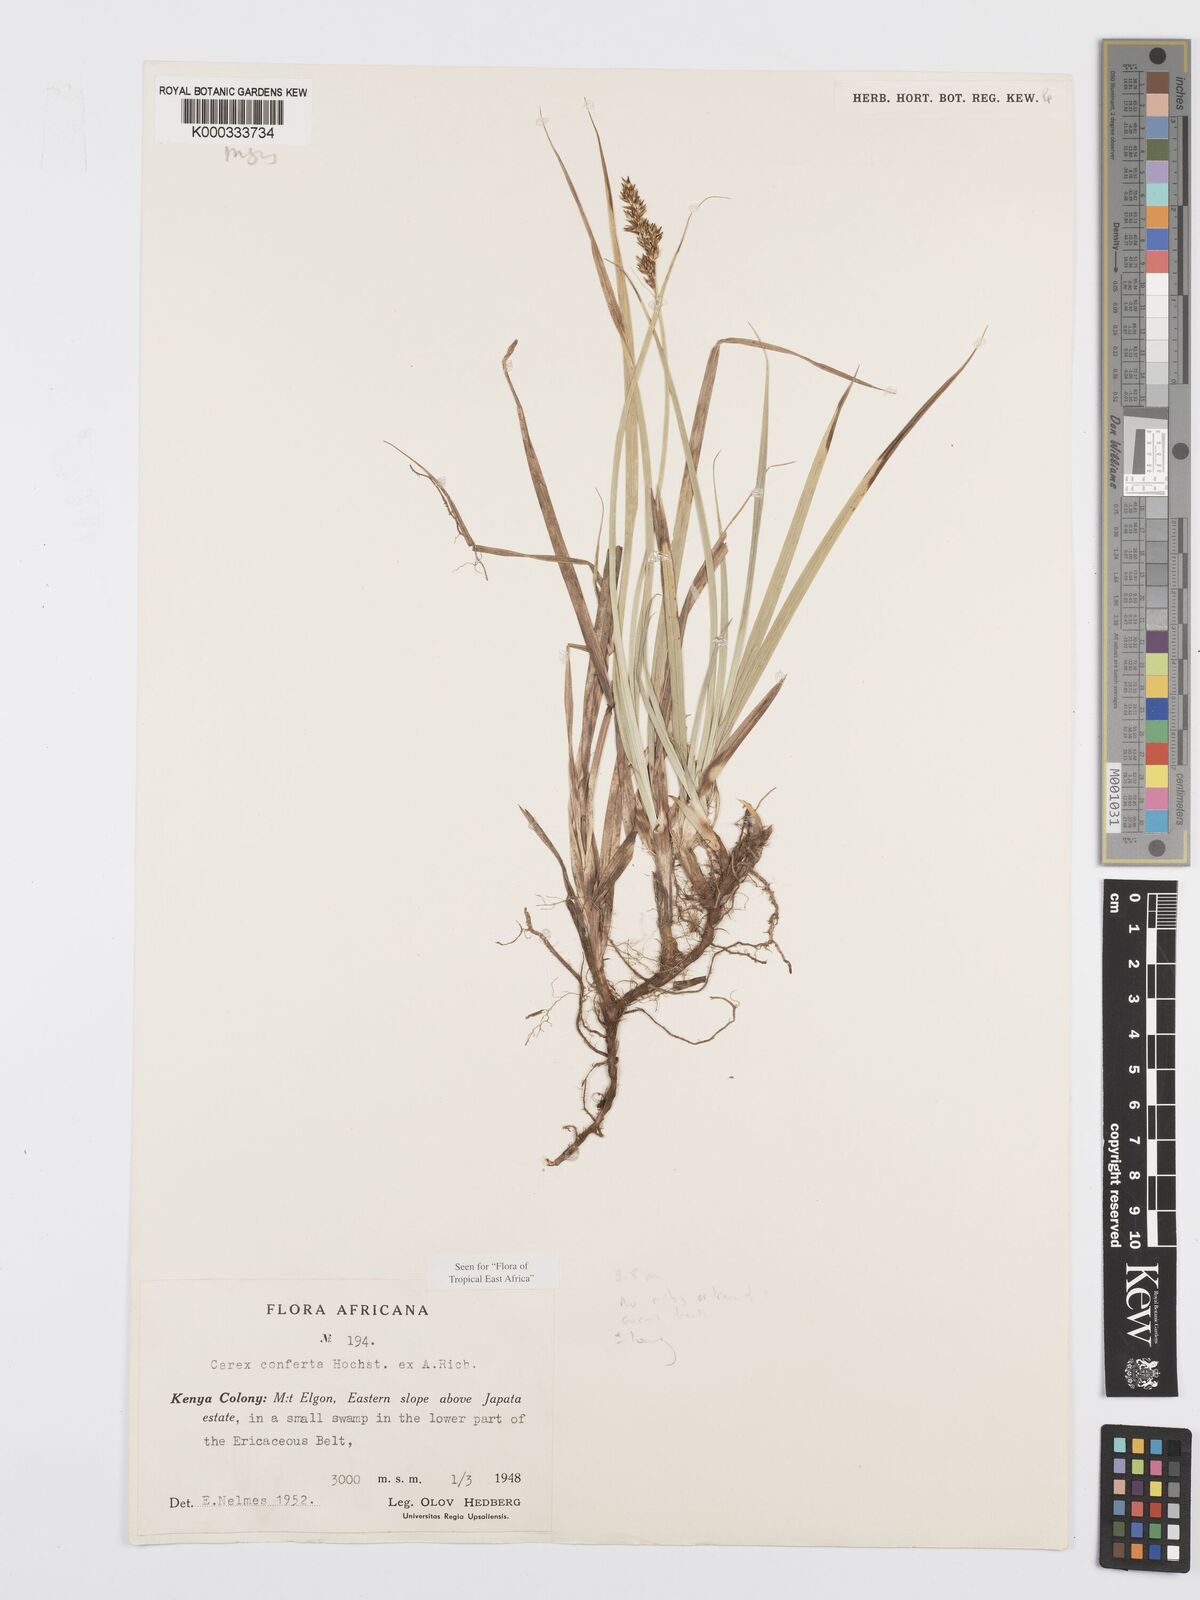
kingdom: Plantae
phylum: Tracheophyta
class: Liliopsida
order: Poales
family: Cyperaceae
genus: Carex
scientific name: Carex conferta
